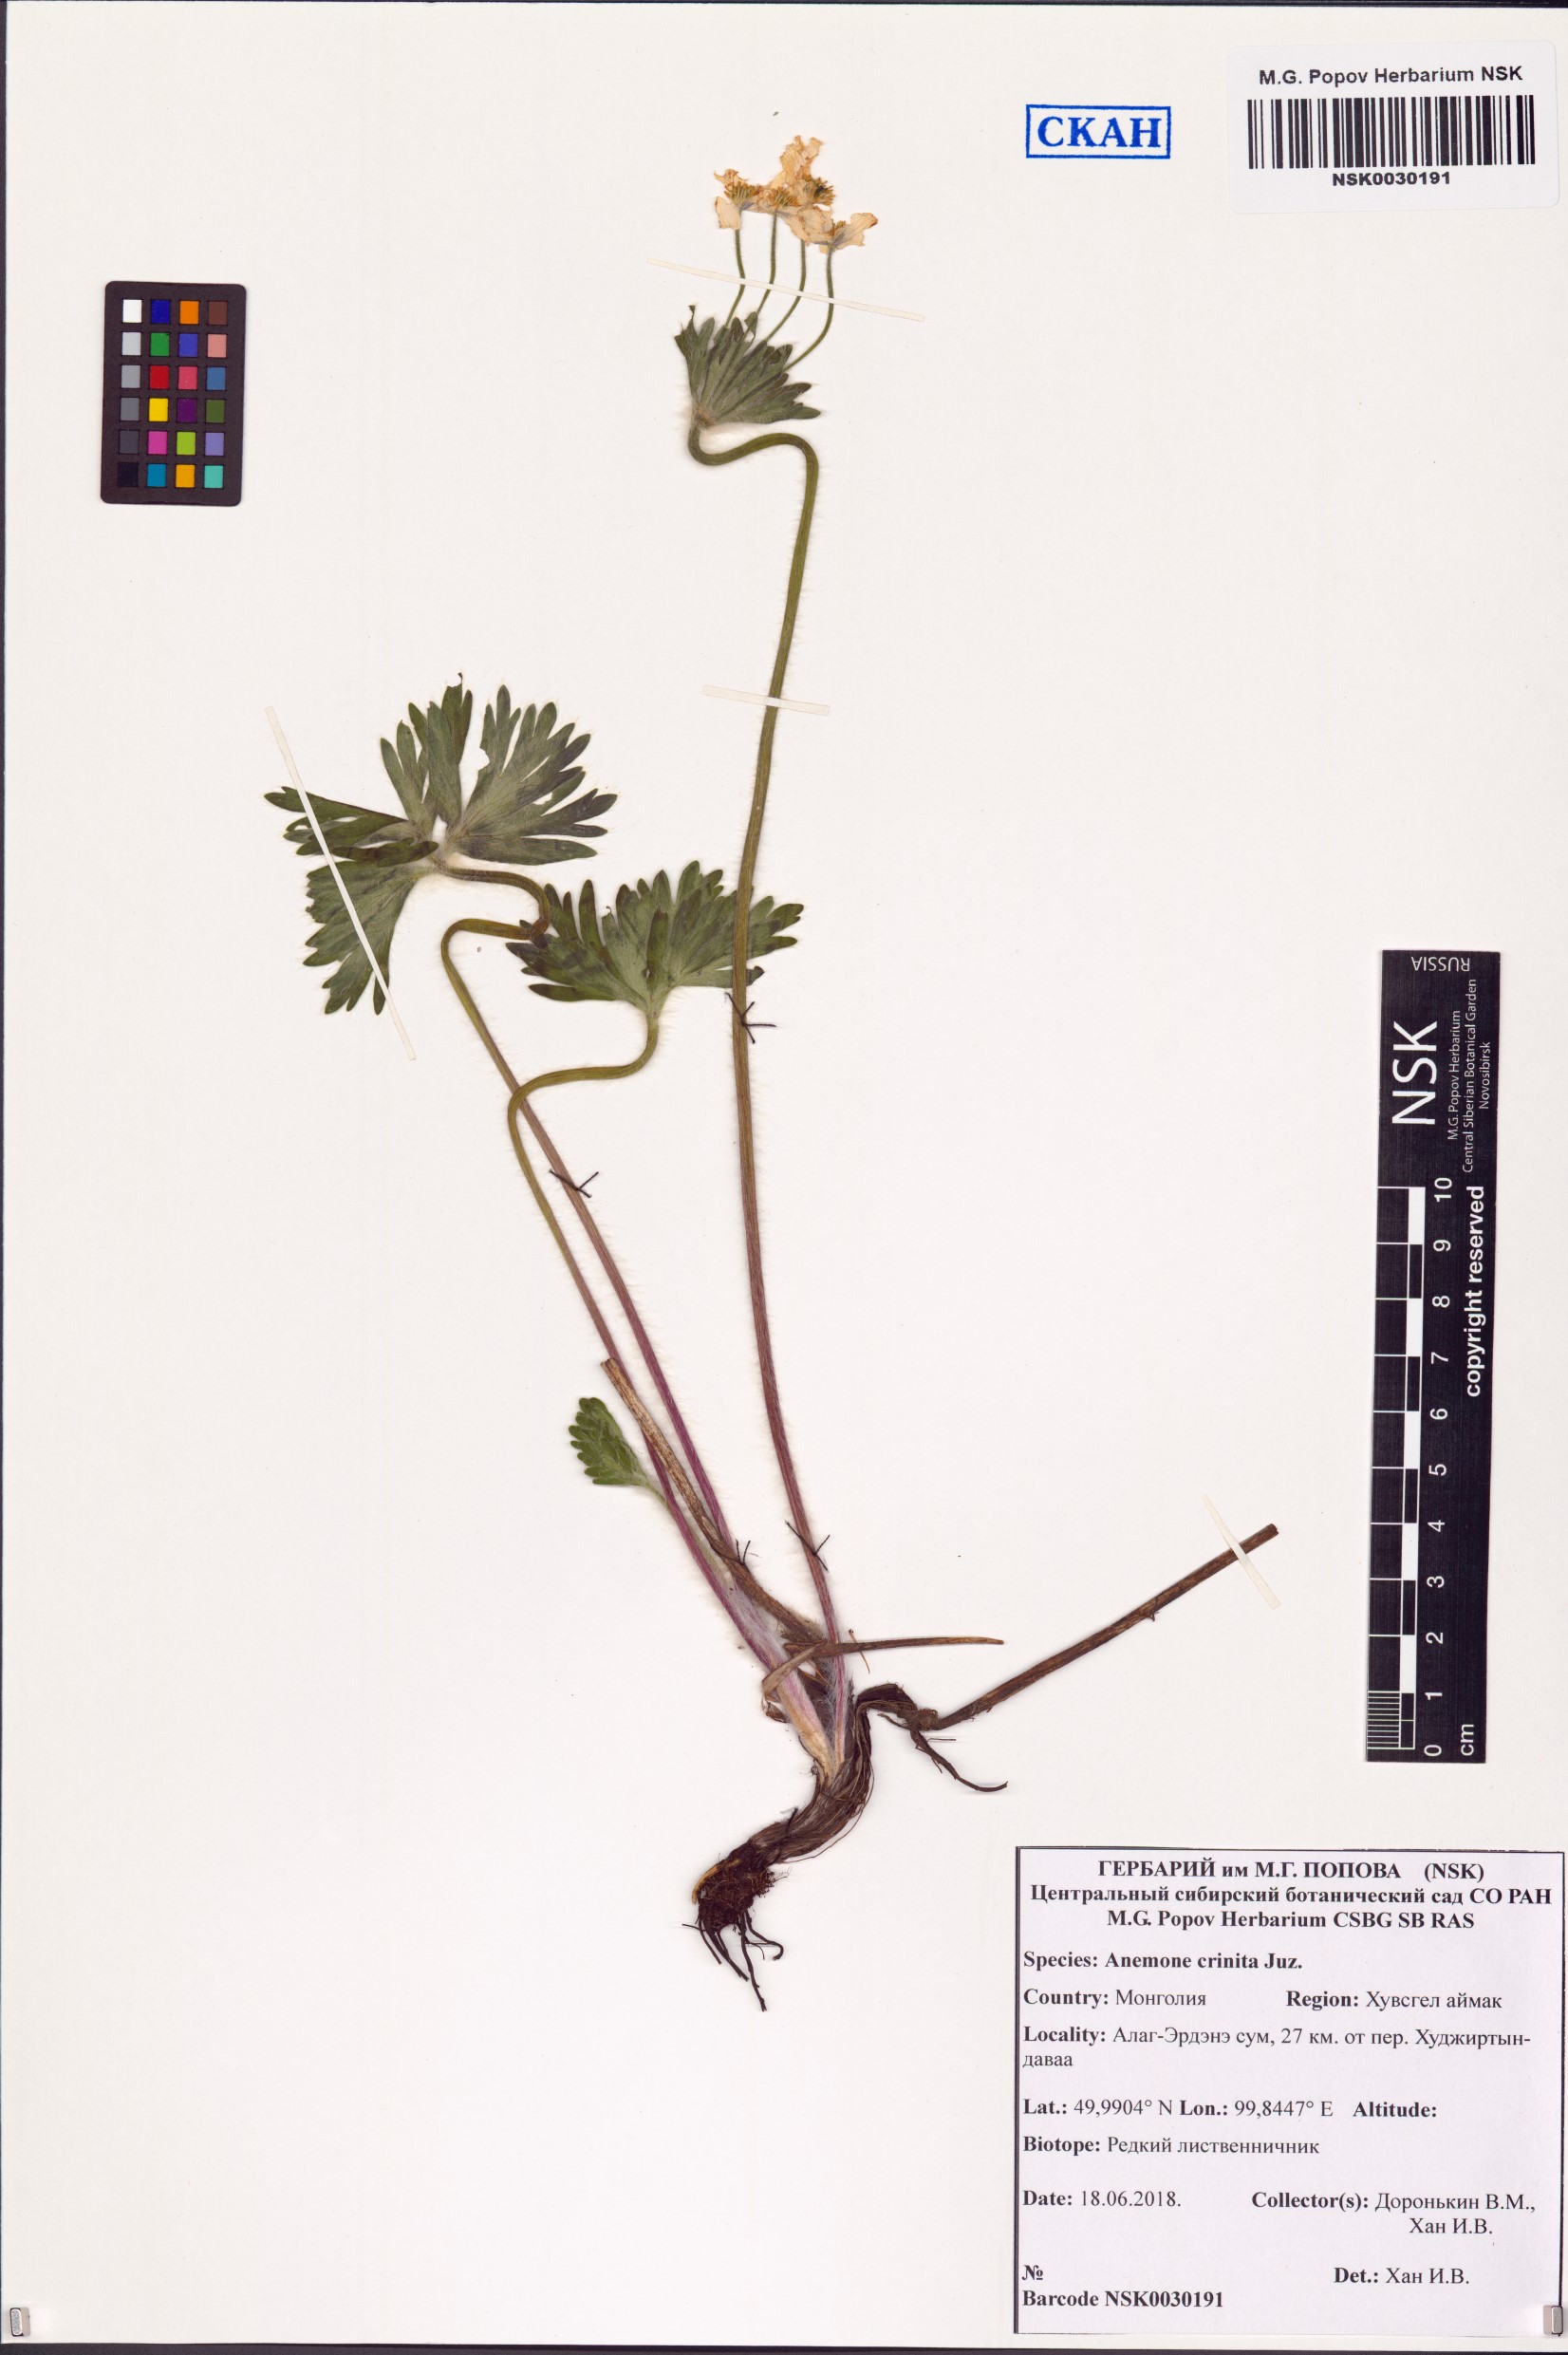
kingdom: Plantae
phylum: Tracheophyta
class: Magnoliopsida
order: Ranunculales
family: Ranunculaceae
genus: Anemonastrum
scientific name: Anemonastrum narcissiflorum
